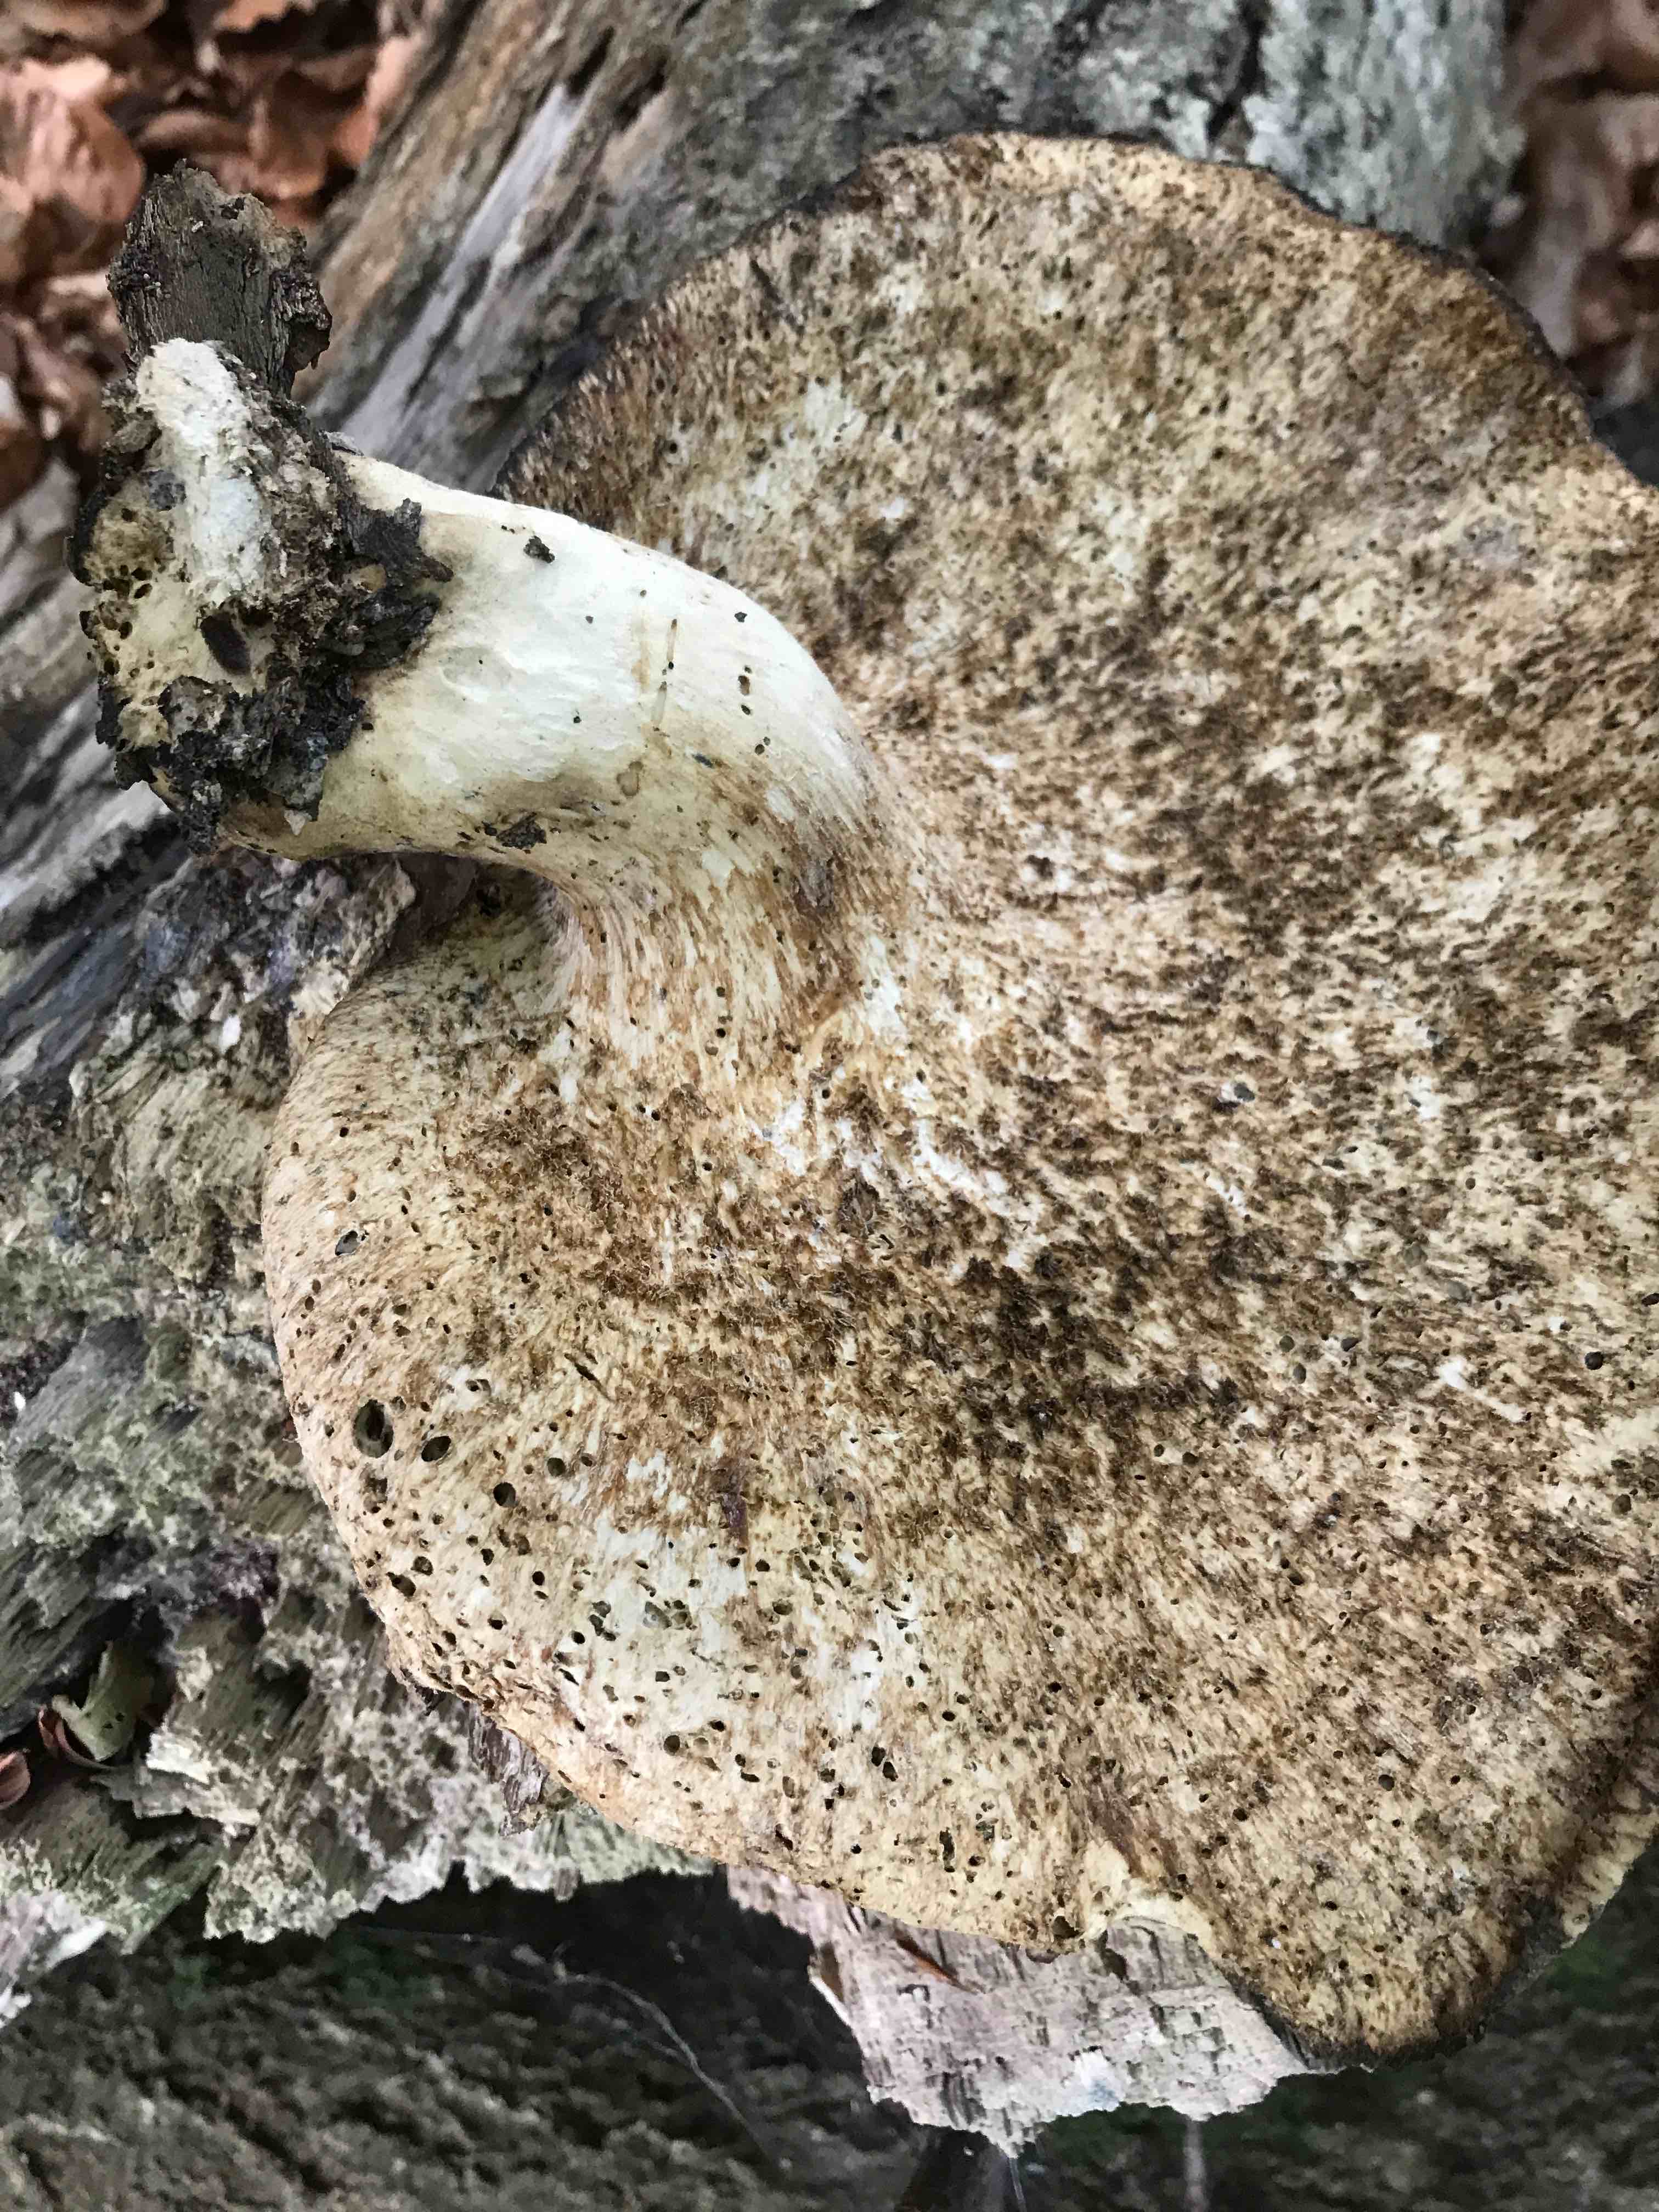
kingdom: Fungi
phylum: Basidiomycota
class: Agaricomycetes
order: Polyporales
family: Polyporaceae
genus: Cerioporus
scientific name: Cerioporus squamosus
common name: skællet stilkporesvamp
